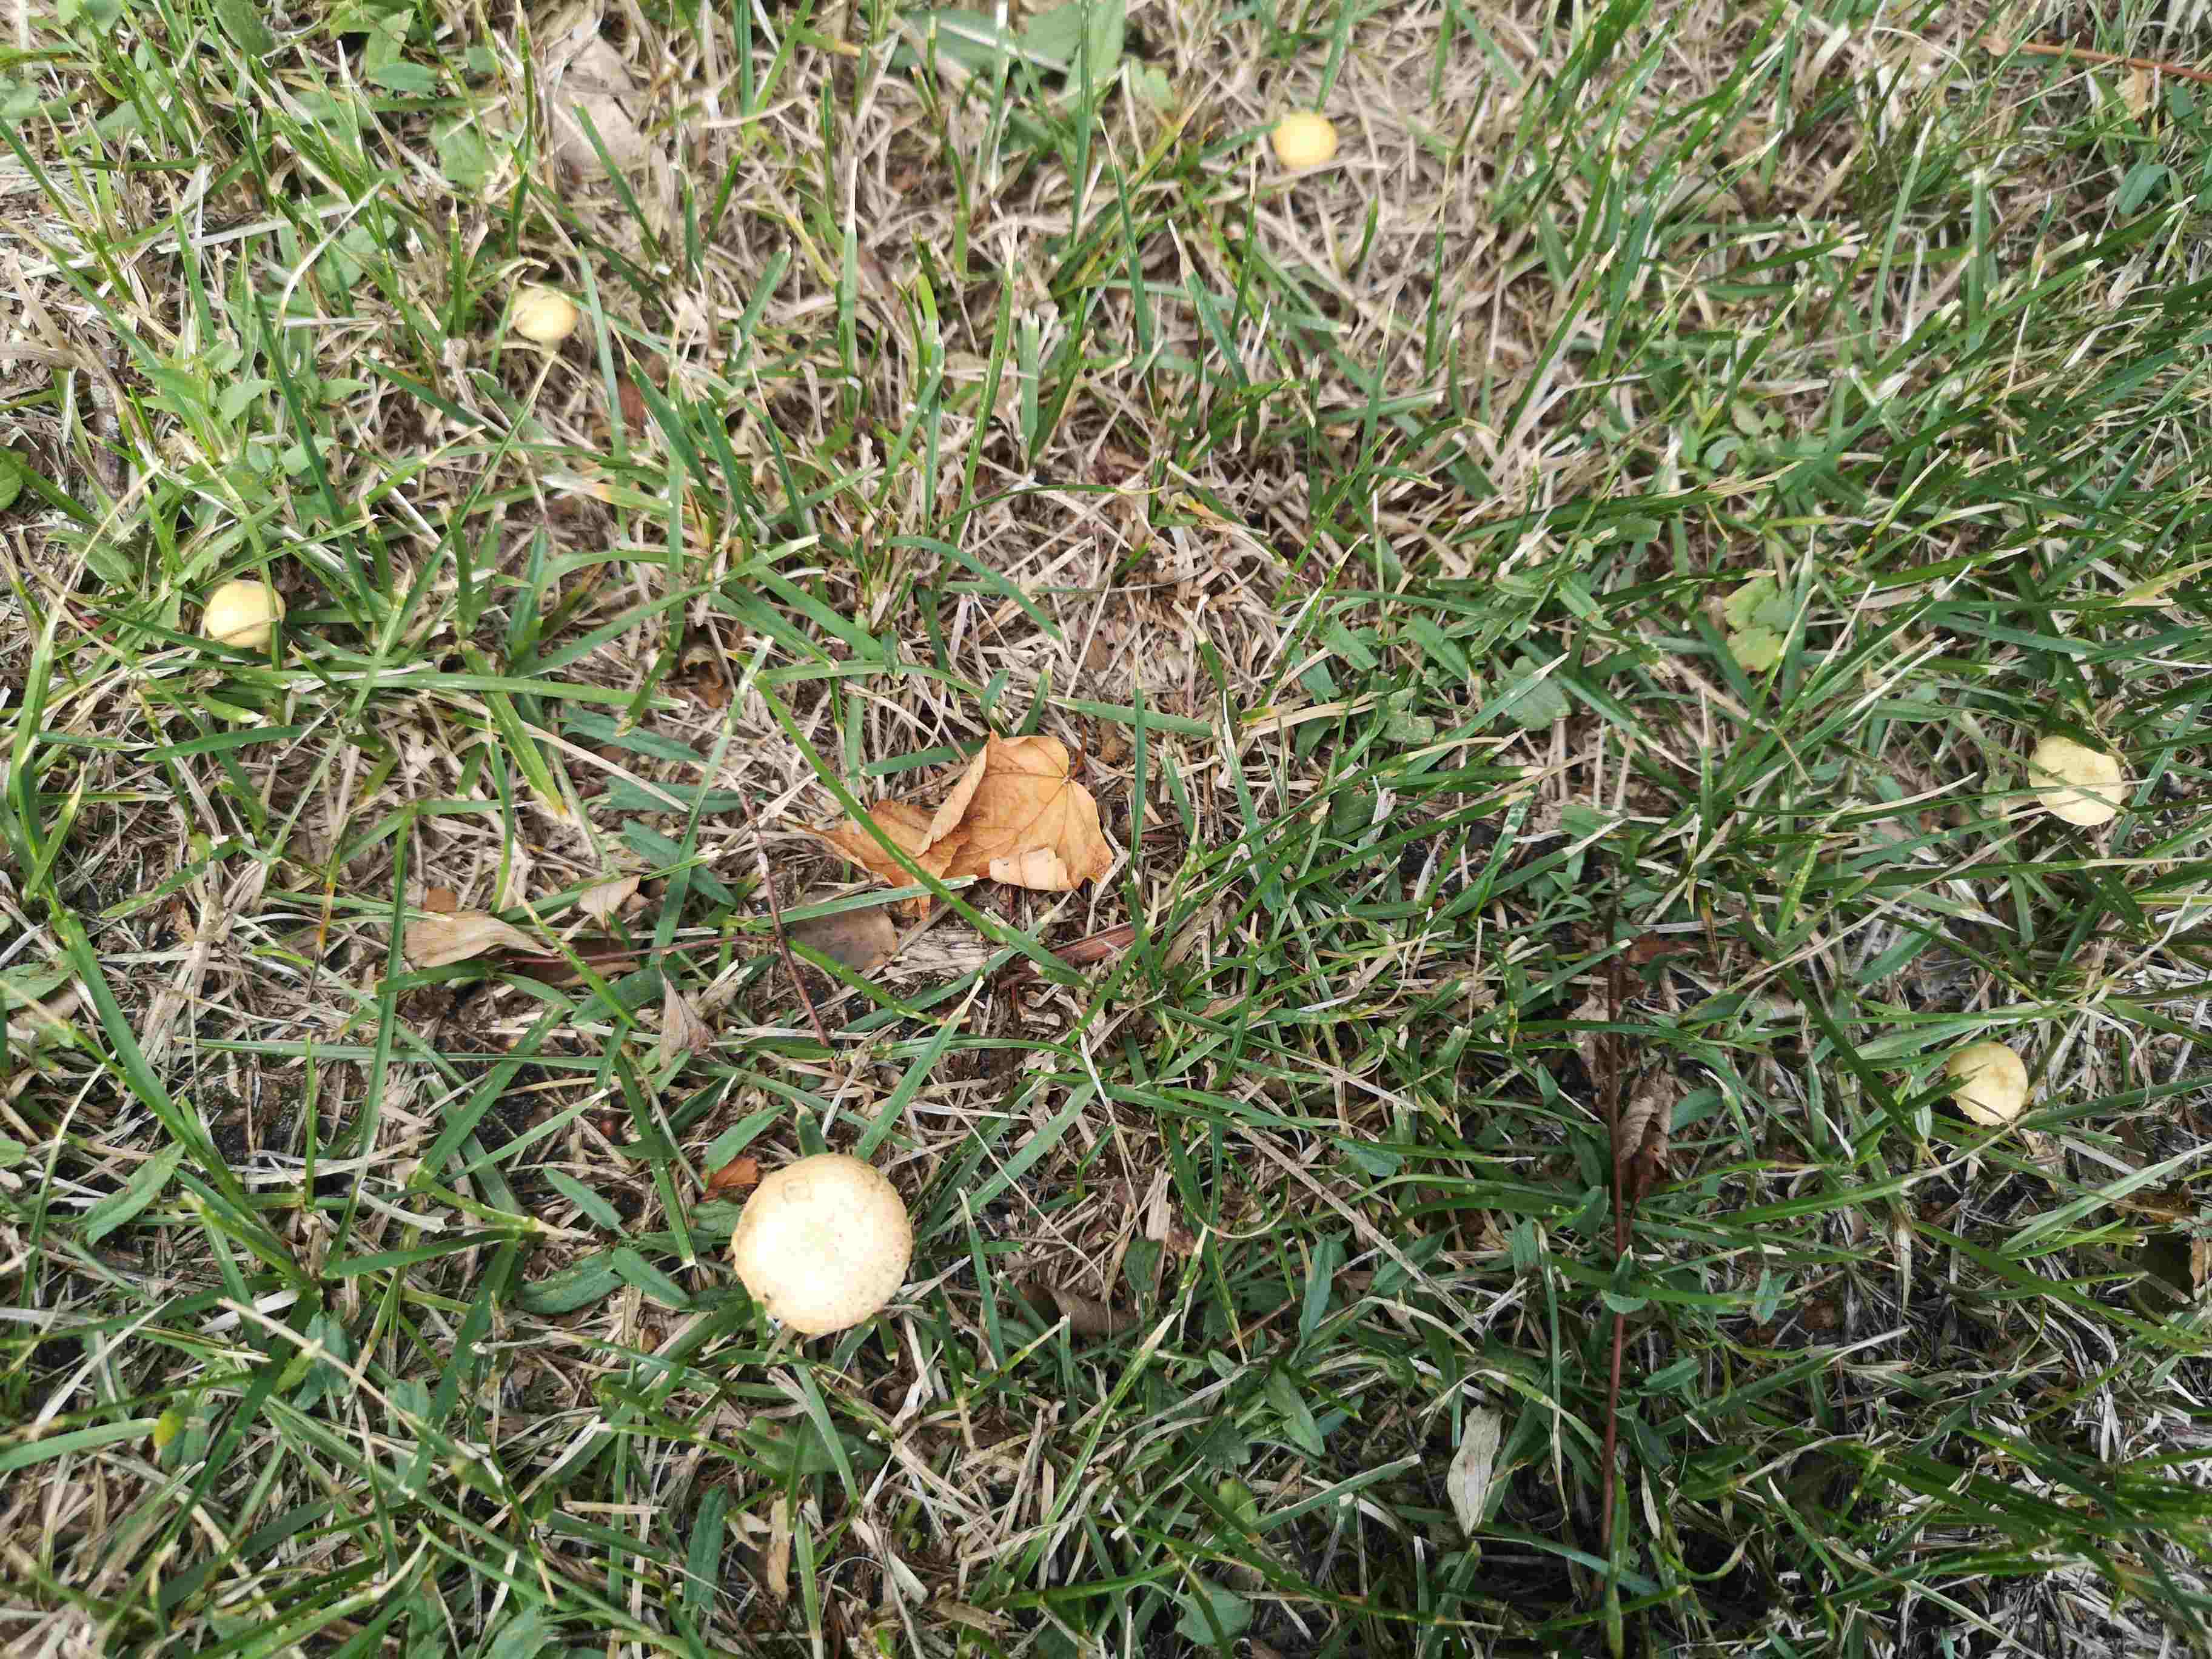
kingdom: Fungi
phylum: Basidiomycota
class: Agaricomycetes
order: Agaricales
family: Strophariaceae
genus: Agrocybe
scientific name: Agrocybe pediades
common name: almindelig agerhat
